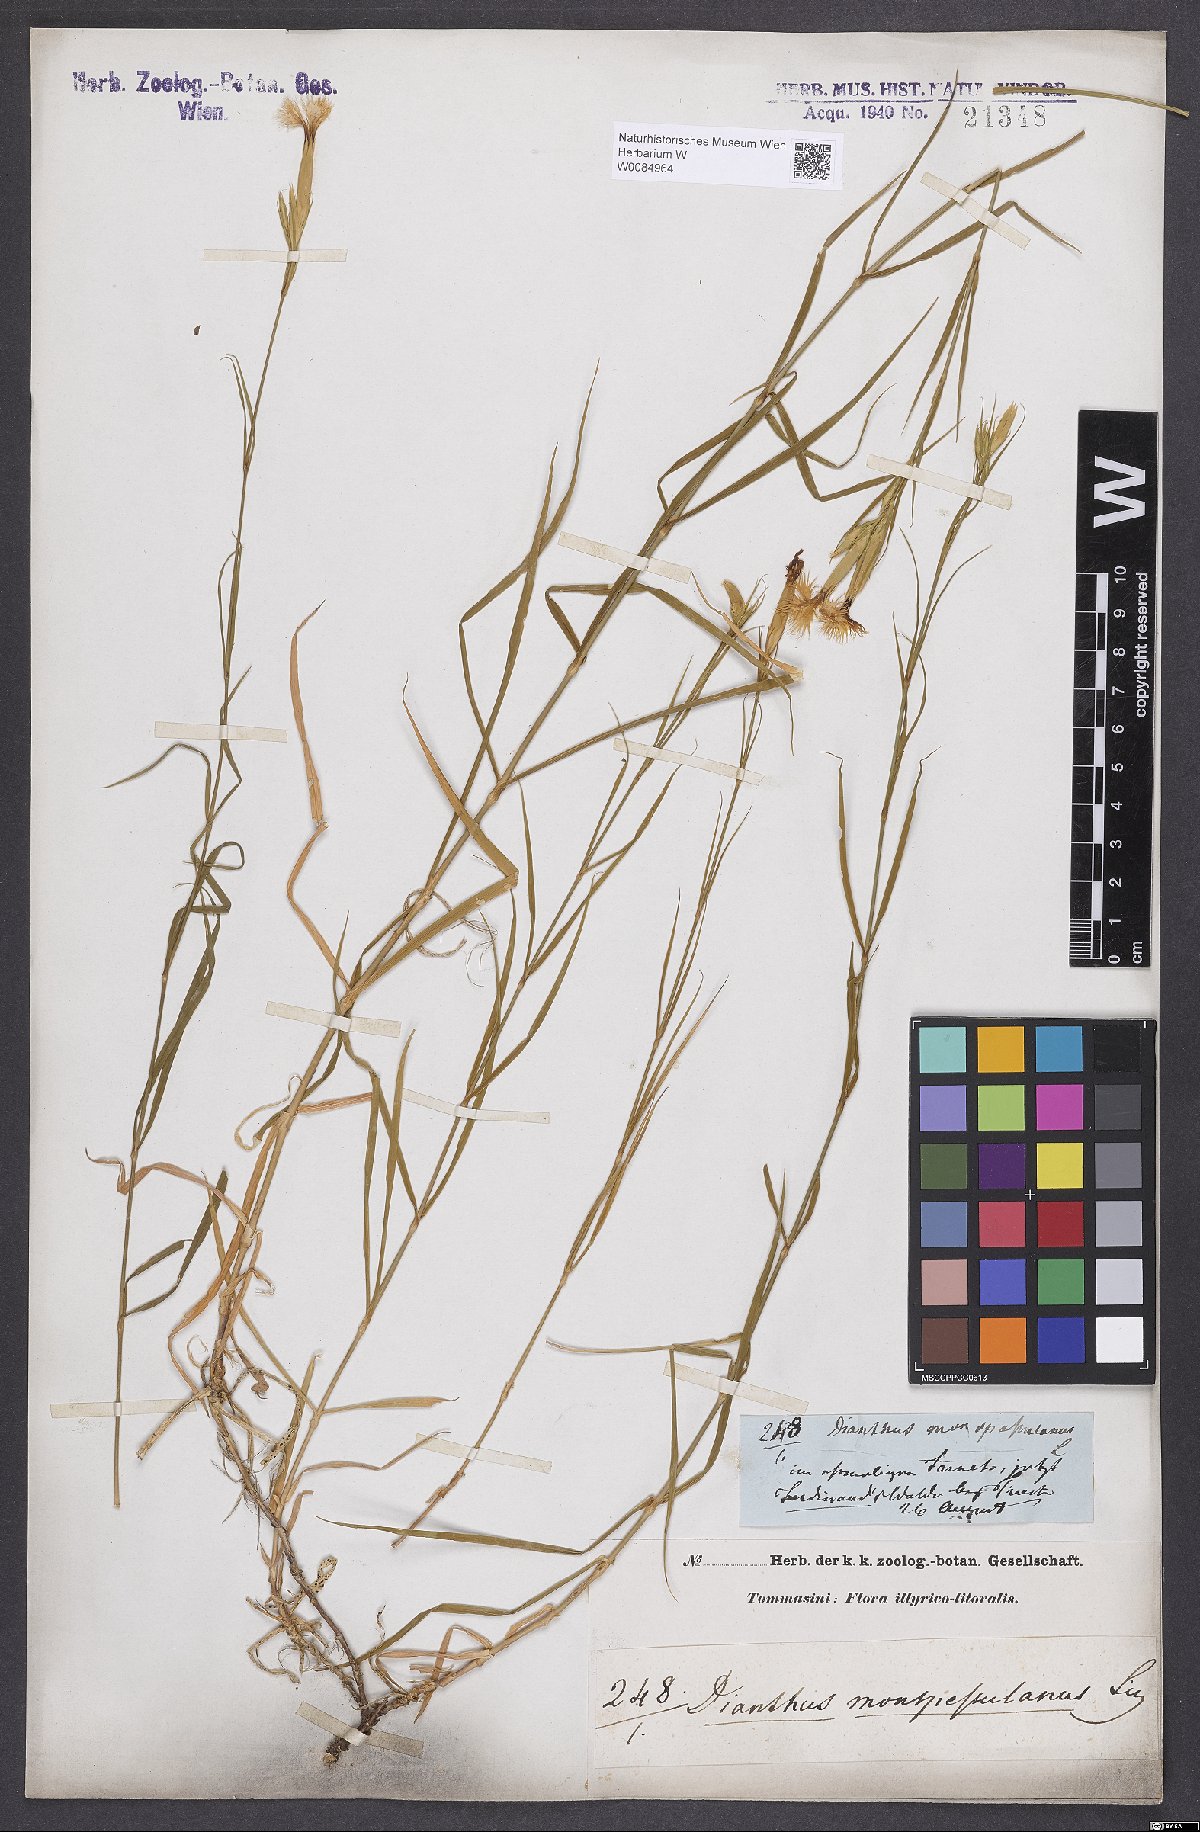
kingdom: Plantae
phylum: Tracheophyta
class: Magnoliopsida
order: Caryophyllales
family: Caryophyllaceae
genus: Dianthus
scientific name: Dianthus hyssopifolius
